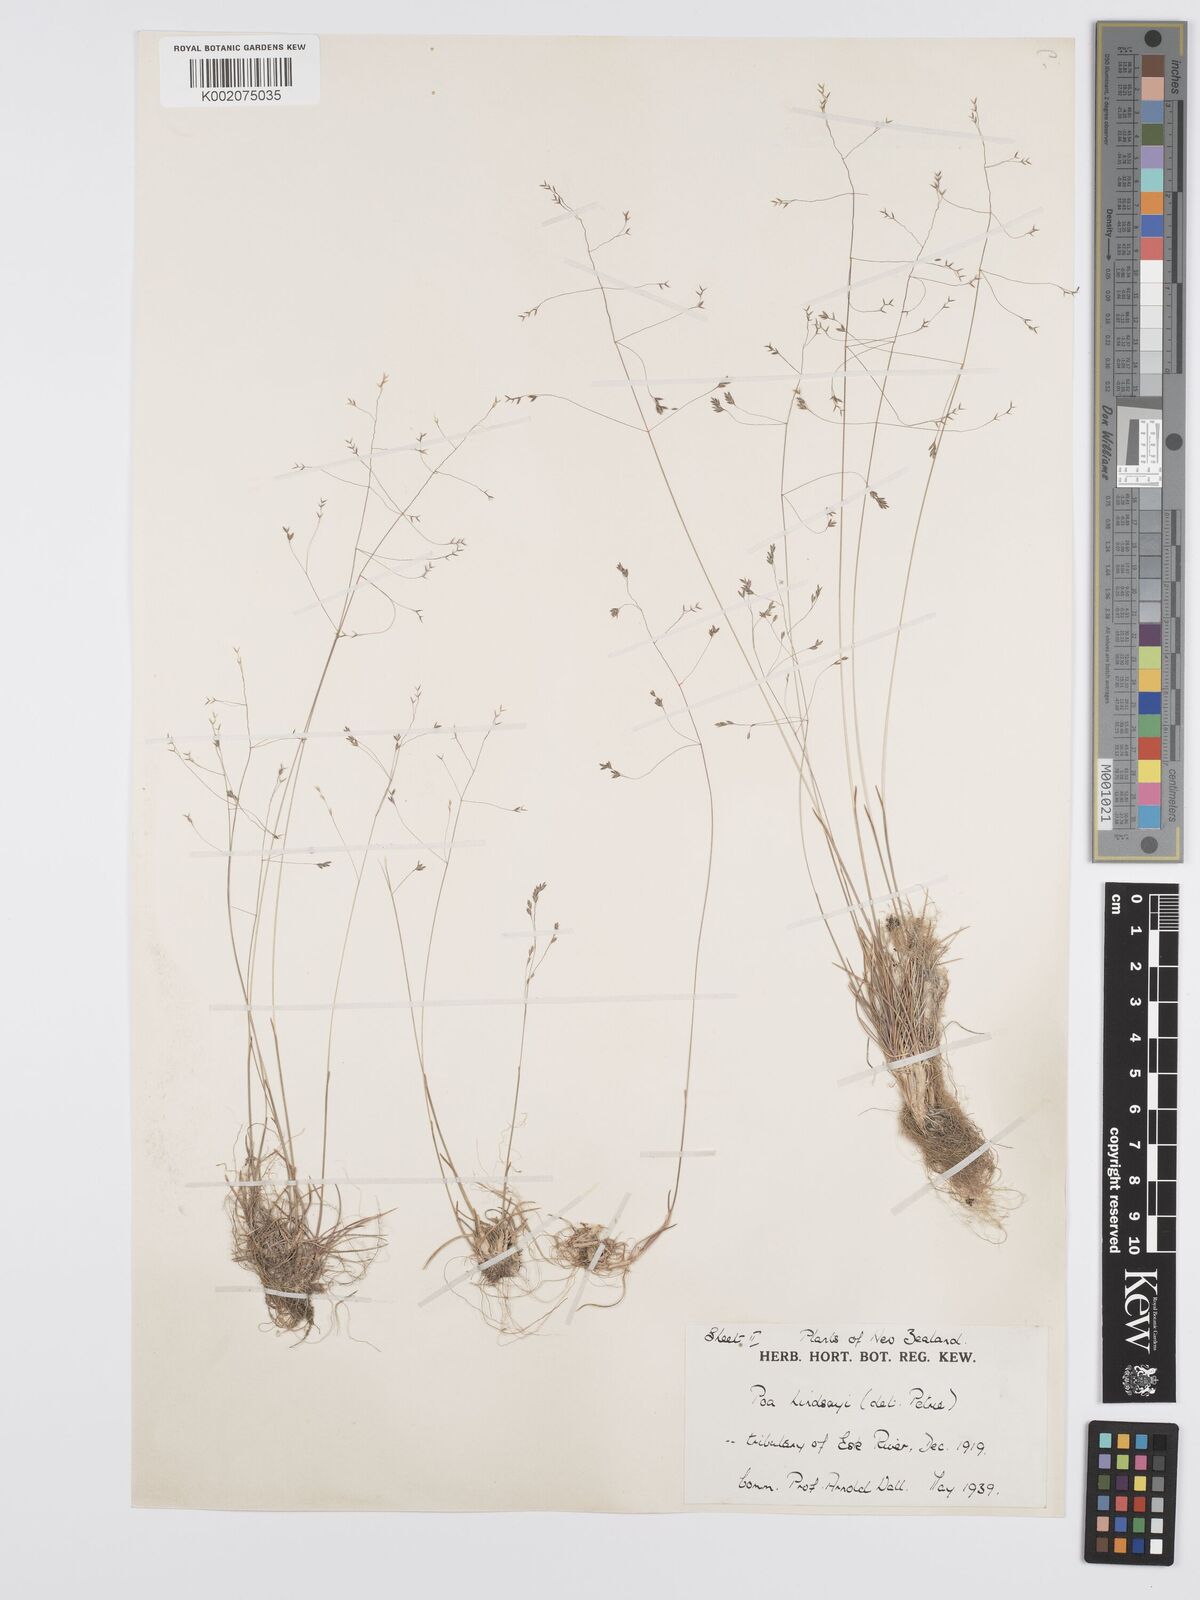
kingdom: Plantae
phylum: Tracheophyta
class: Liliopsida
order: Poales
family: Poaceae
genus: Poa
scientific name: Poa lindsayi
